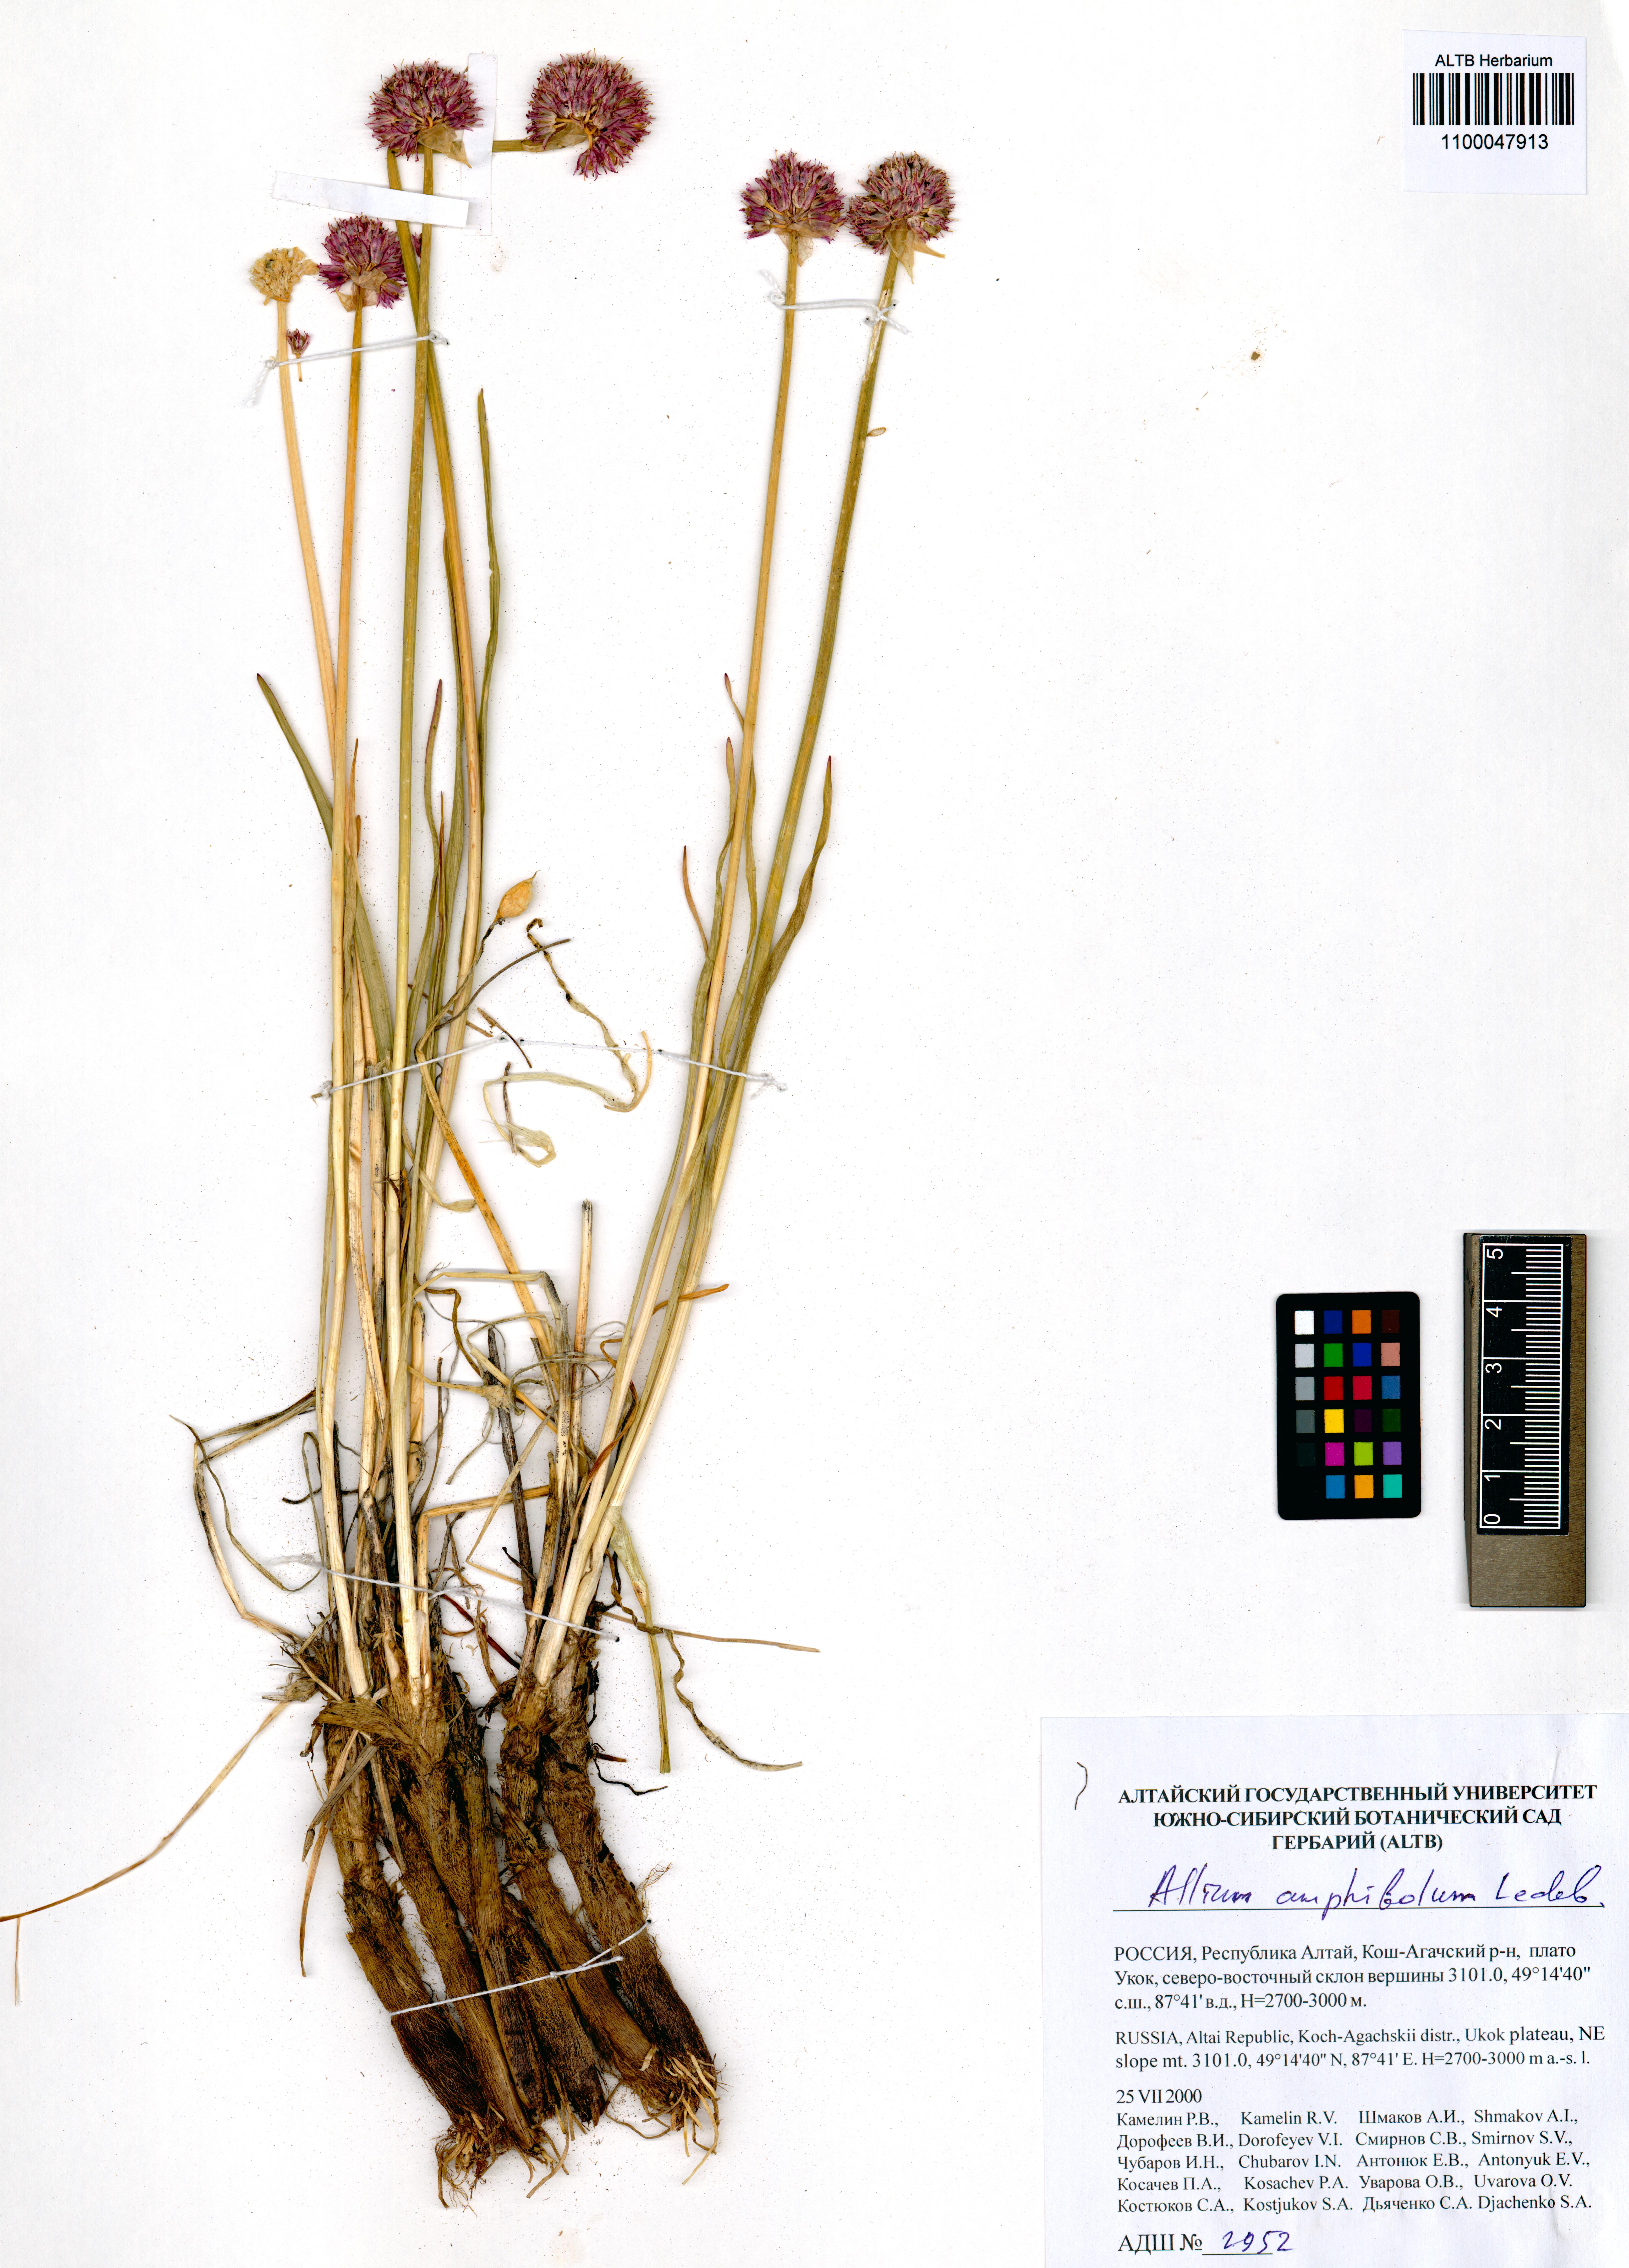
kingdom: Plantae
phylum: Tracheophyta
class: Liliopsida
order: Asparagales
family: Amaryllidaceae
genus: Allium
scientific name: Allium amphibolum
